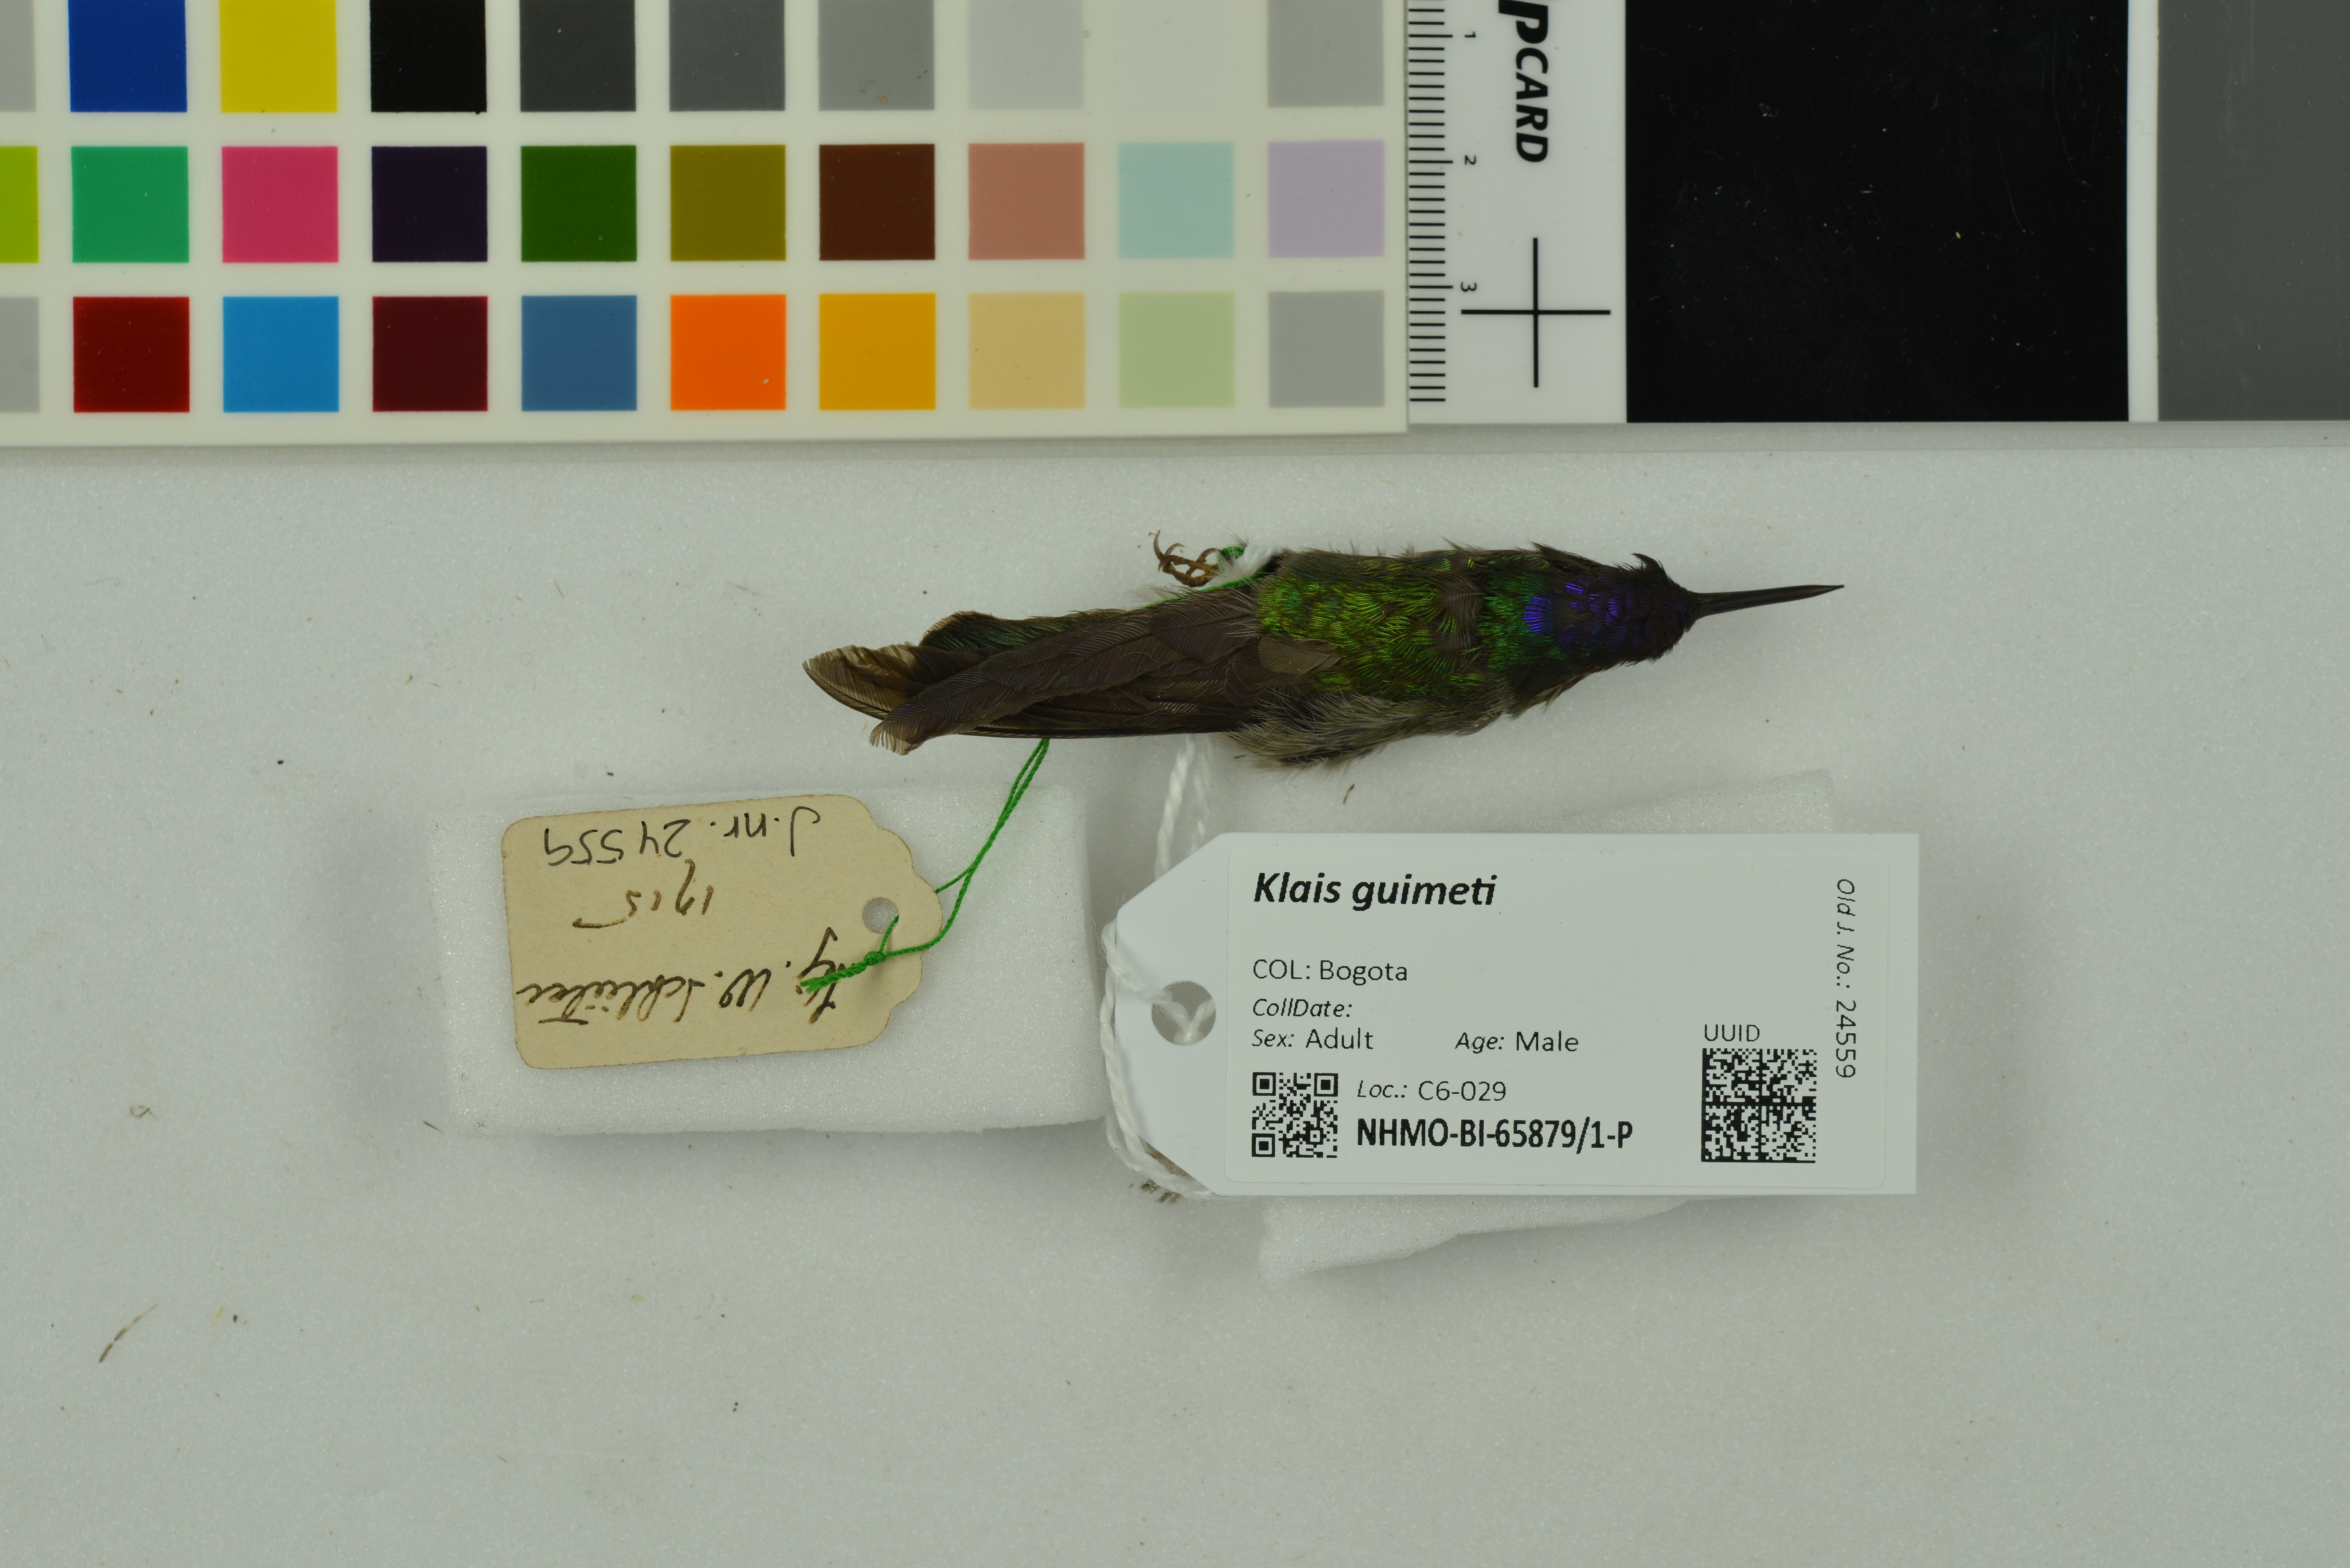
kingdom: Animalia
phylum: Chordata
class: Aves
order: Apodiformes
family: Trochilidae
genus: Klais
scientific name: Klais guimeti
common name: Violet-headed hummingbird
